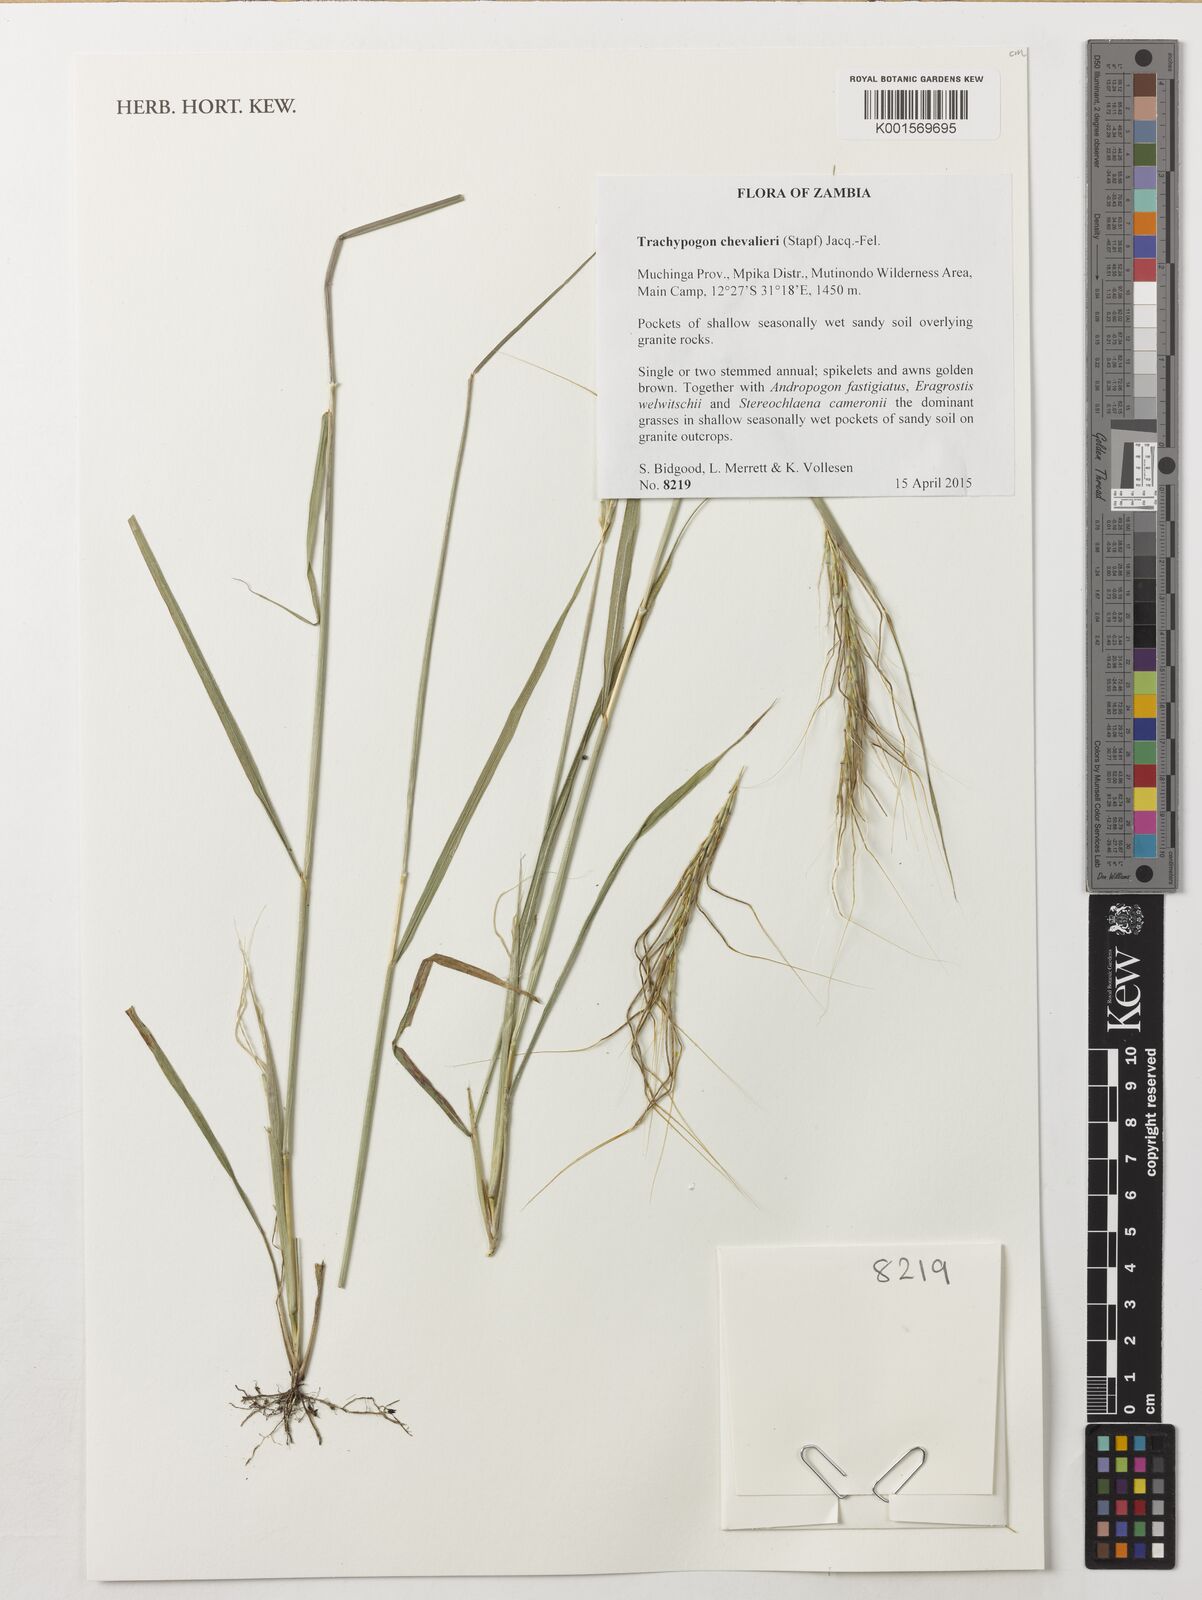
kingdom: Plantae
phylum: Tracheophyta
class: Liliopsida
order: Poales
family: Poaceae
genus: Trachypogon
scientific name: Trachypogon chevalieri
